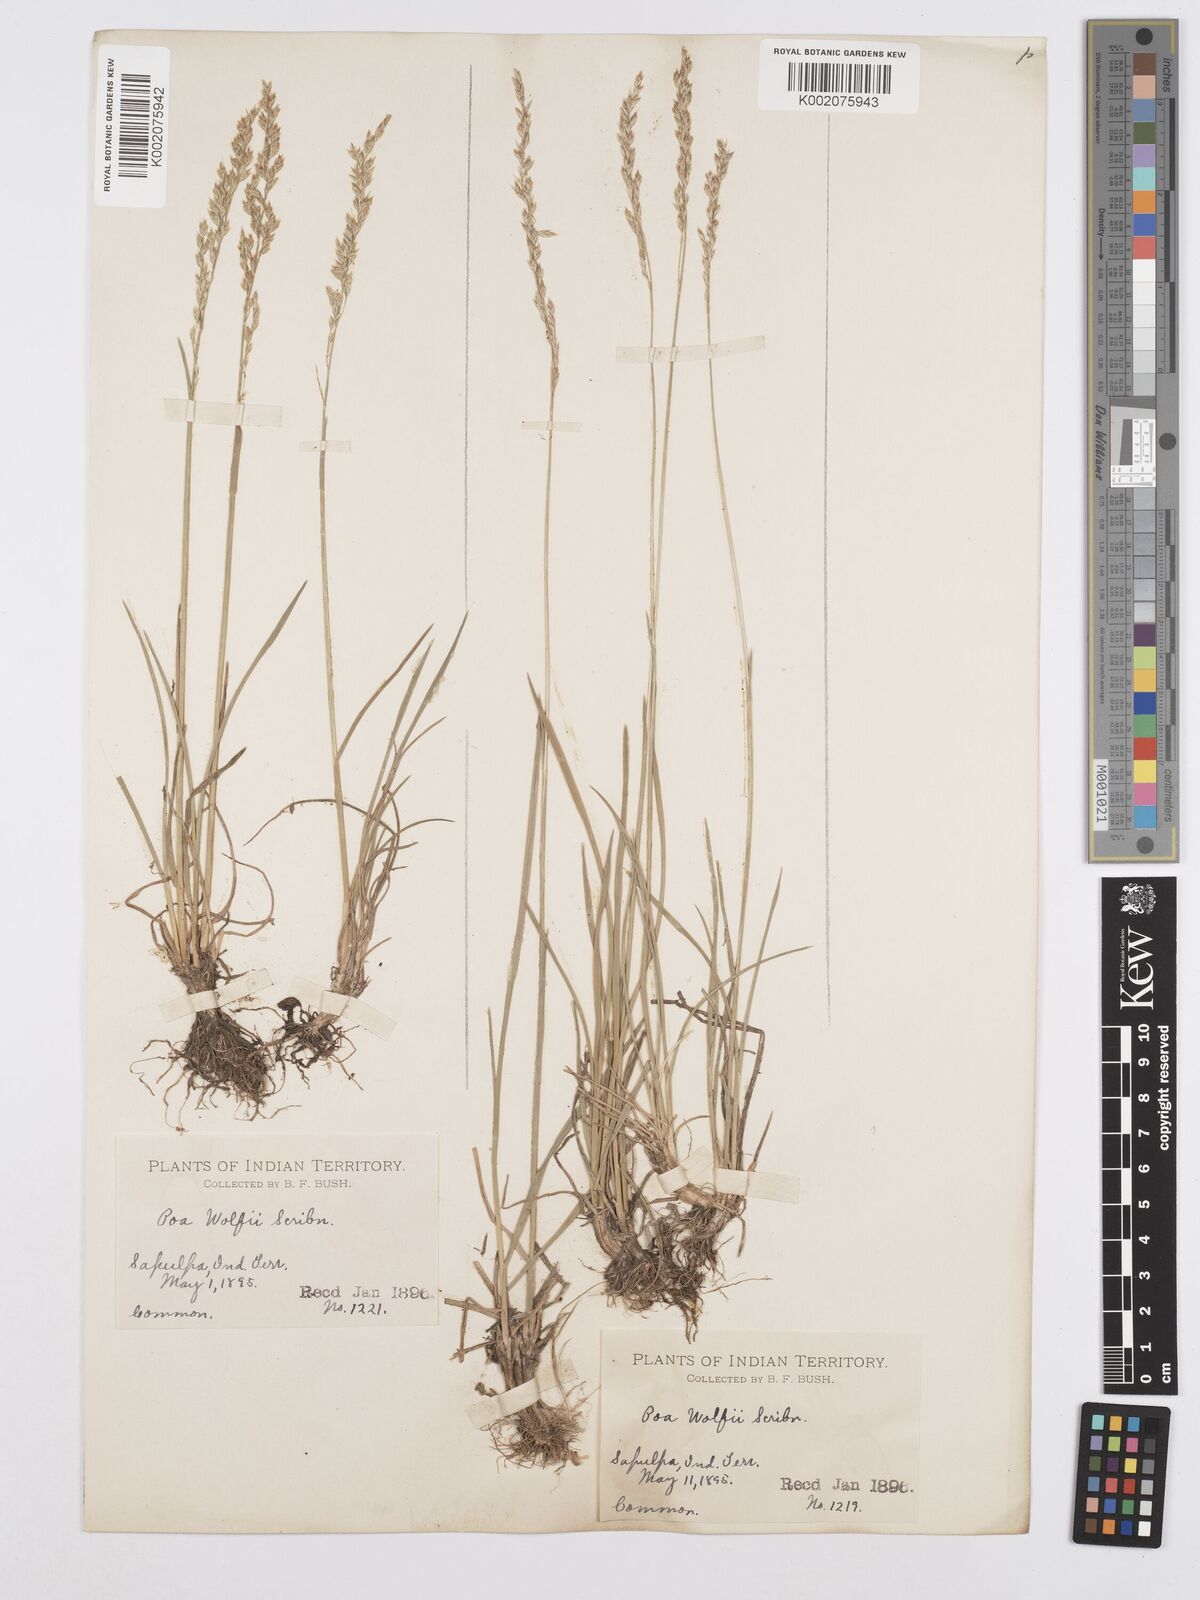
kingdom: Plantae
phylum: Tracheophyta
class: Liliopsida
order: Poales
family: Poaceae
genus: Poa
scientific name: Poa wolfii
